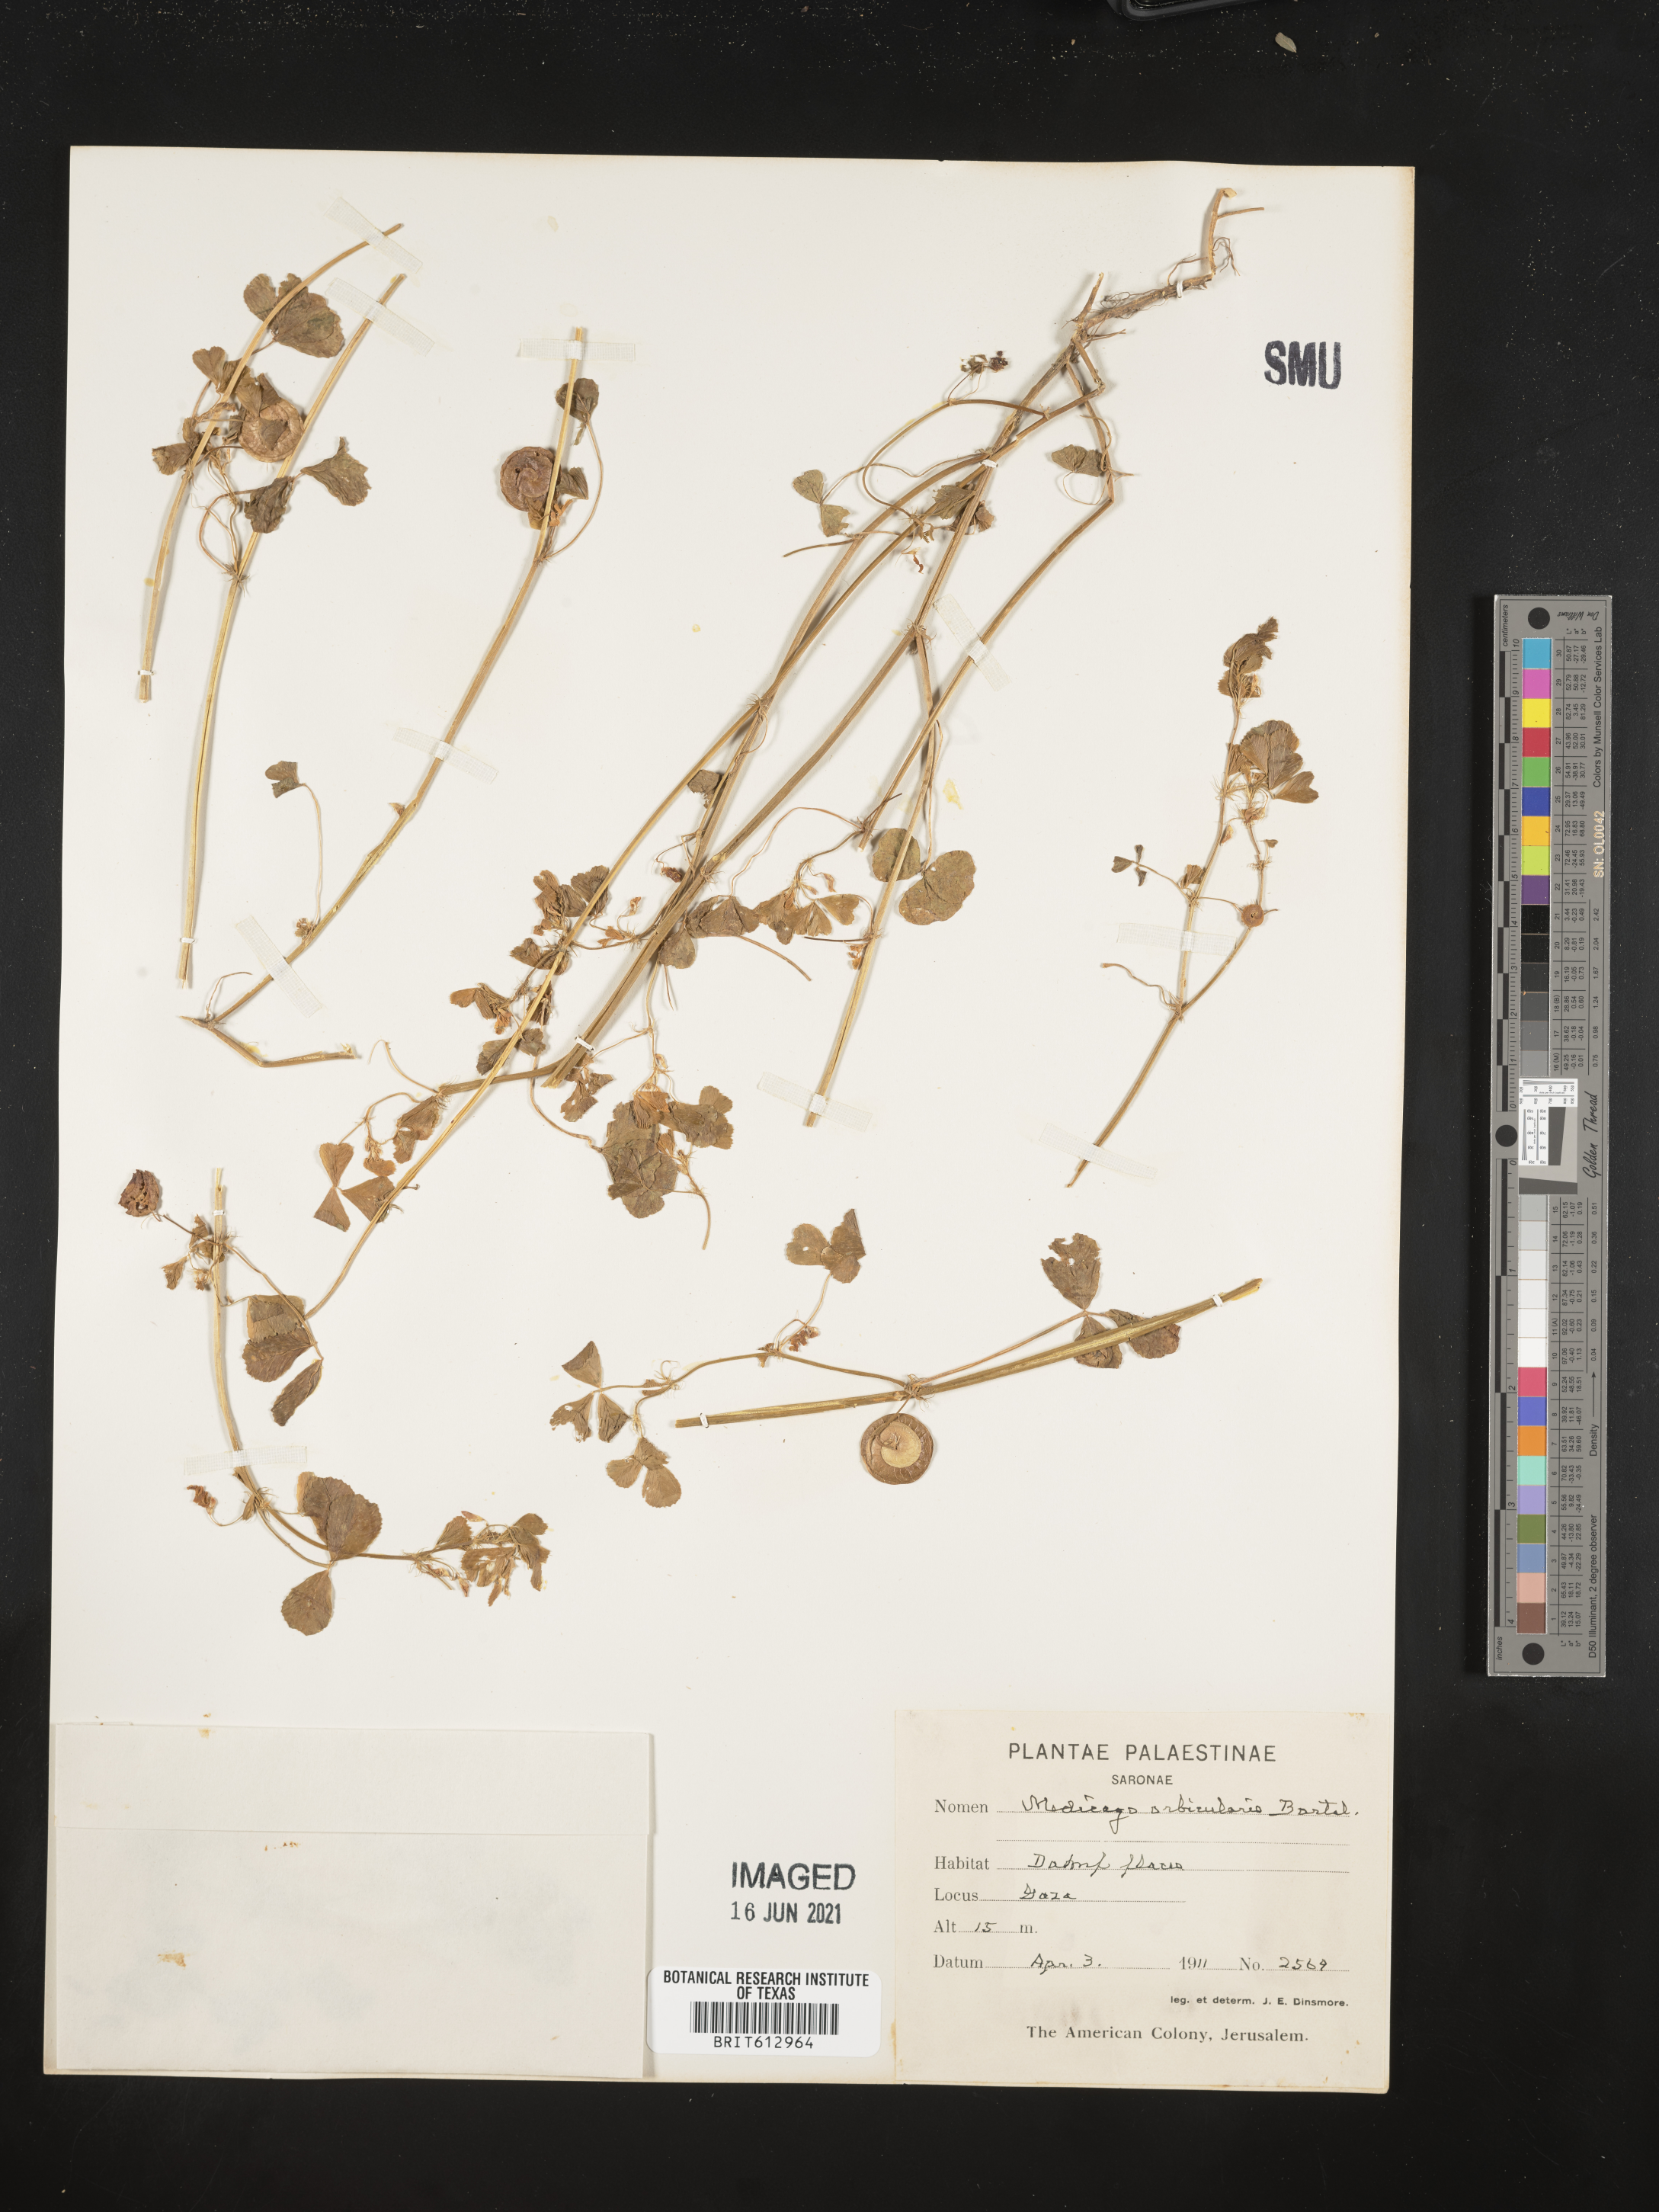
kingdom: Plantae
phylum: Tracheophyta
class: Magnoliopsida
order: Fabales
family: Fabaceae
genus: Medicago
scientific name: Medicago orbicularis
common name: Button medick
